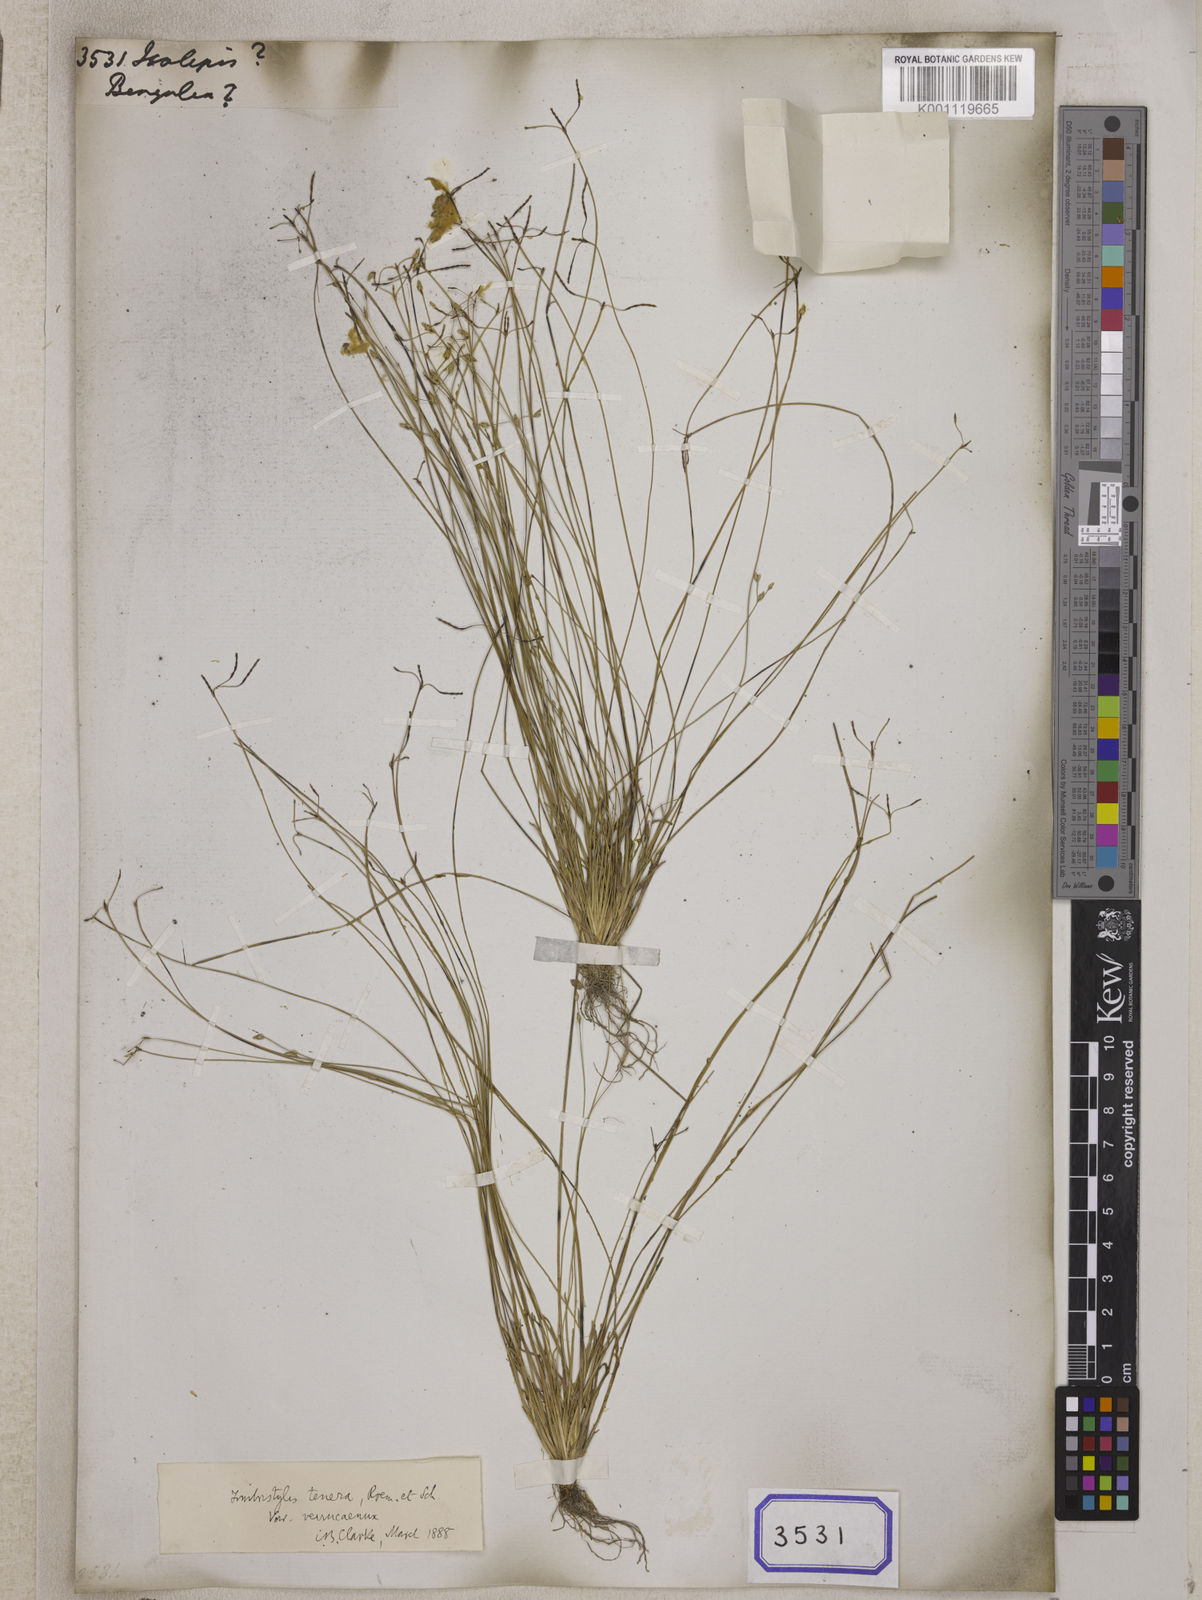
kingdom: Plantae
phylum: Tracheophyta
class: Liliopsida
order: Poales
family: Cyperaceae
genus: Isolepis
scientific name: Isolepis
